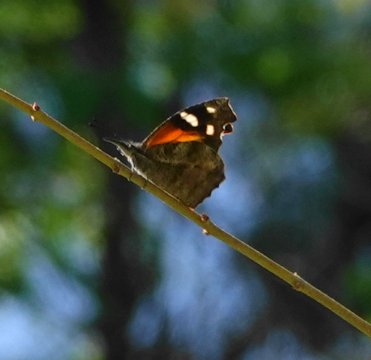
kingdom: Animalia
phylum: Arthropoda
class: Insecta
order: Lepidoptera
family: Nymphalidae
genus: Libytheana
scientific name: Libytheana carinenta
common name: American Snout
